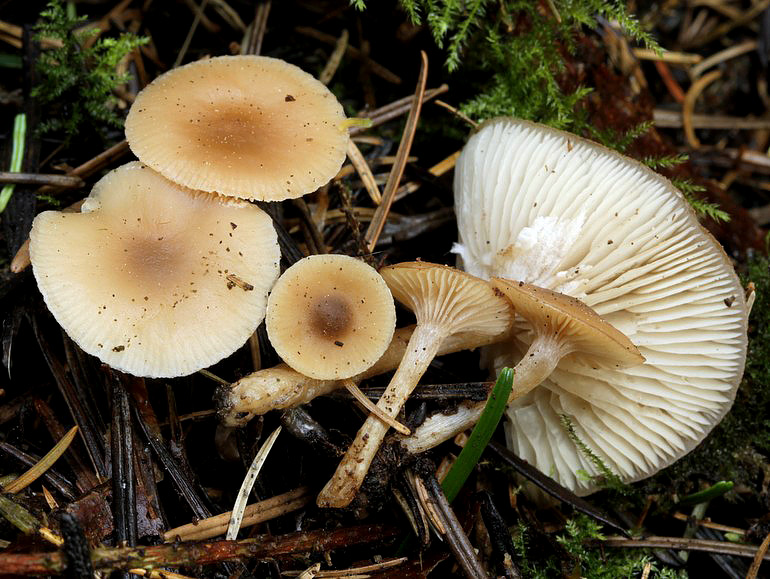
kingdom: Fungi
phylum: Basidiomycota
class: Agaricomycetes
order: Agaricales
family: Tricholomataceae
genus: Clitocybe
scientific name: Clitocybe fragrans
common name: vellugtende tragthat
